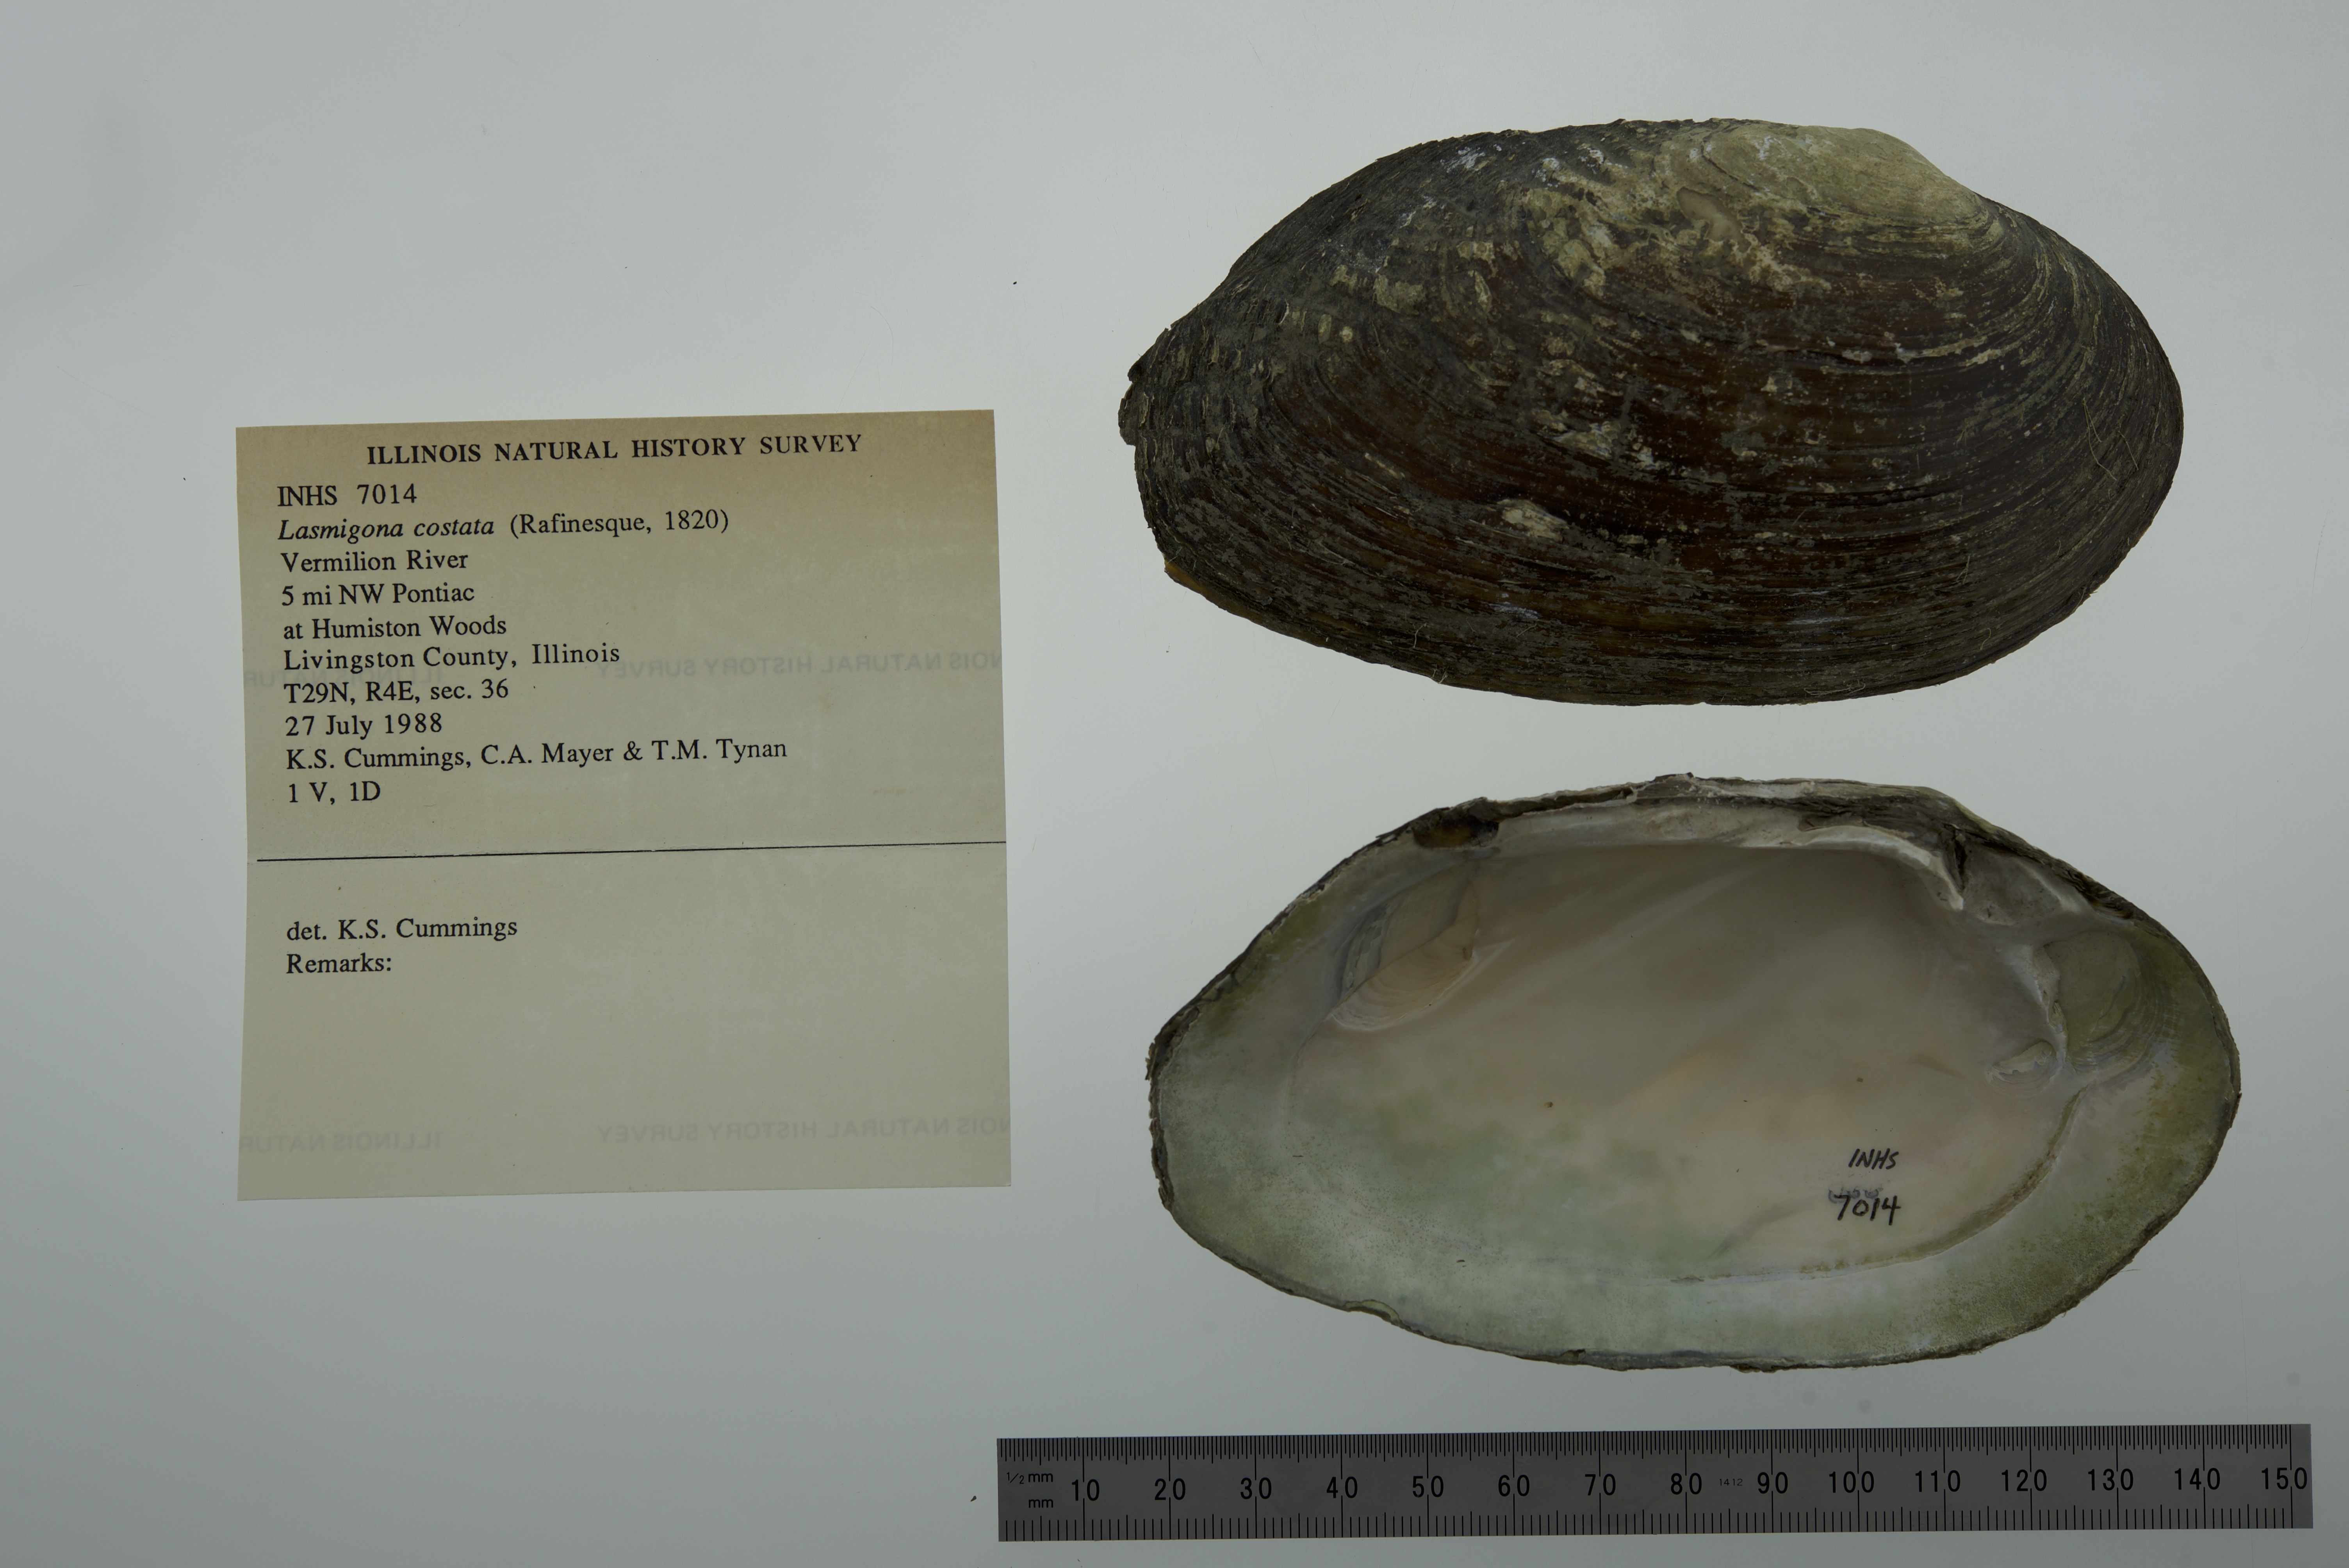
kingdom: Animalia
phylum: Mollusca
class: Bivalvia
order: Unionida
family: Unionidae
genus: Lasmigona
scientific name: Lasmigona costata
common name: Flutedshell
